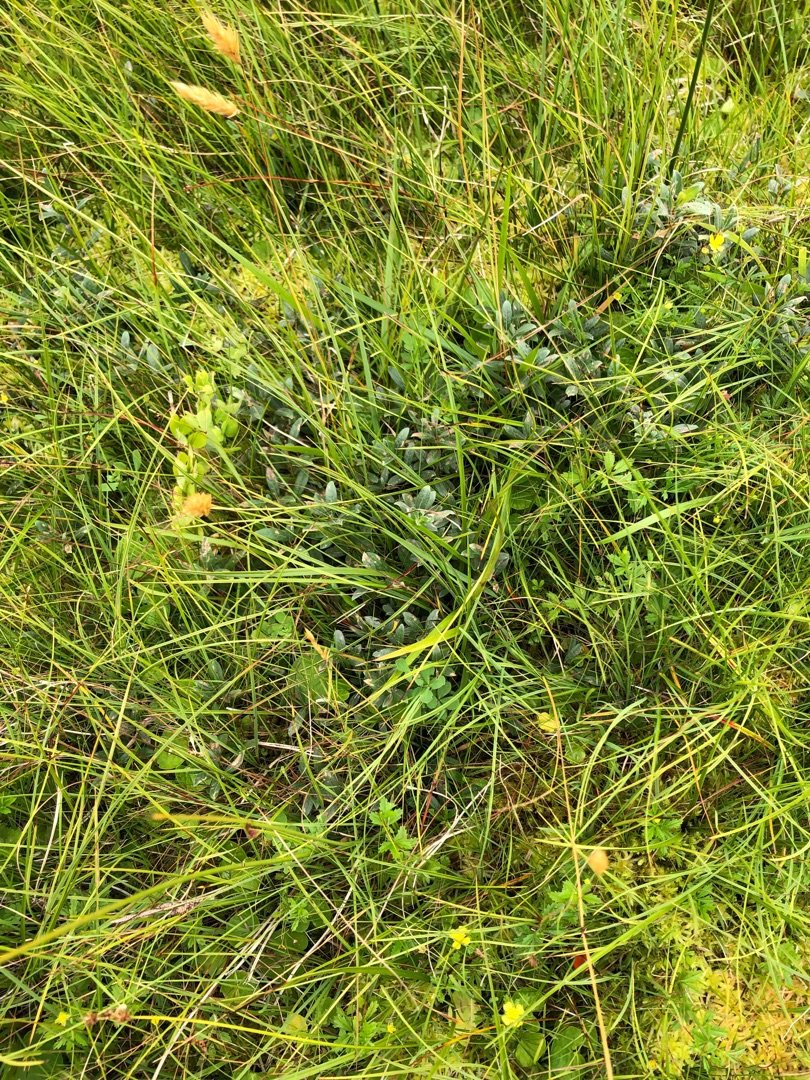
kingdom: Plantae
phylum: Tracheophyta
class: Magnoliopsida
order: Malpighiales
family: Salicaceae
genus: Salix
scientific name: Salix repens
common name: Krybende pil
